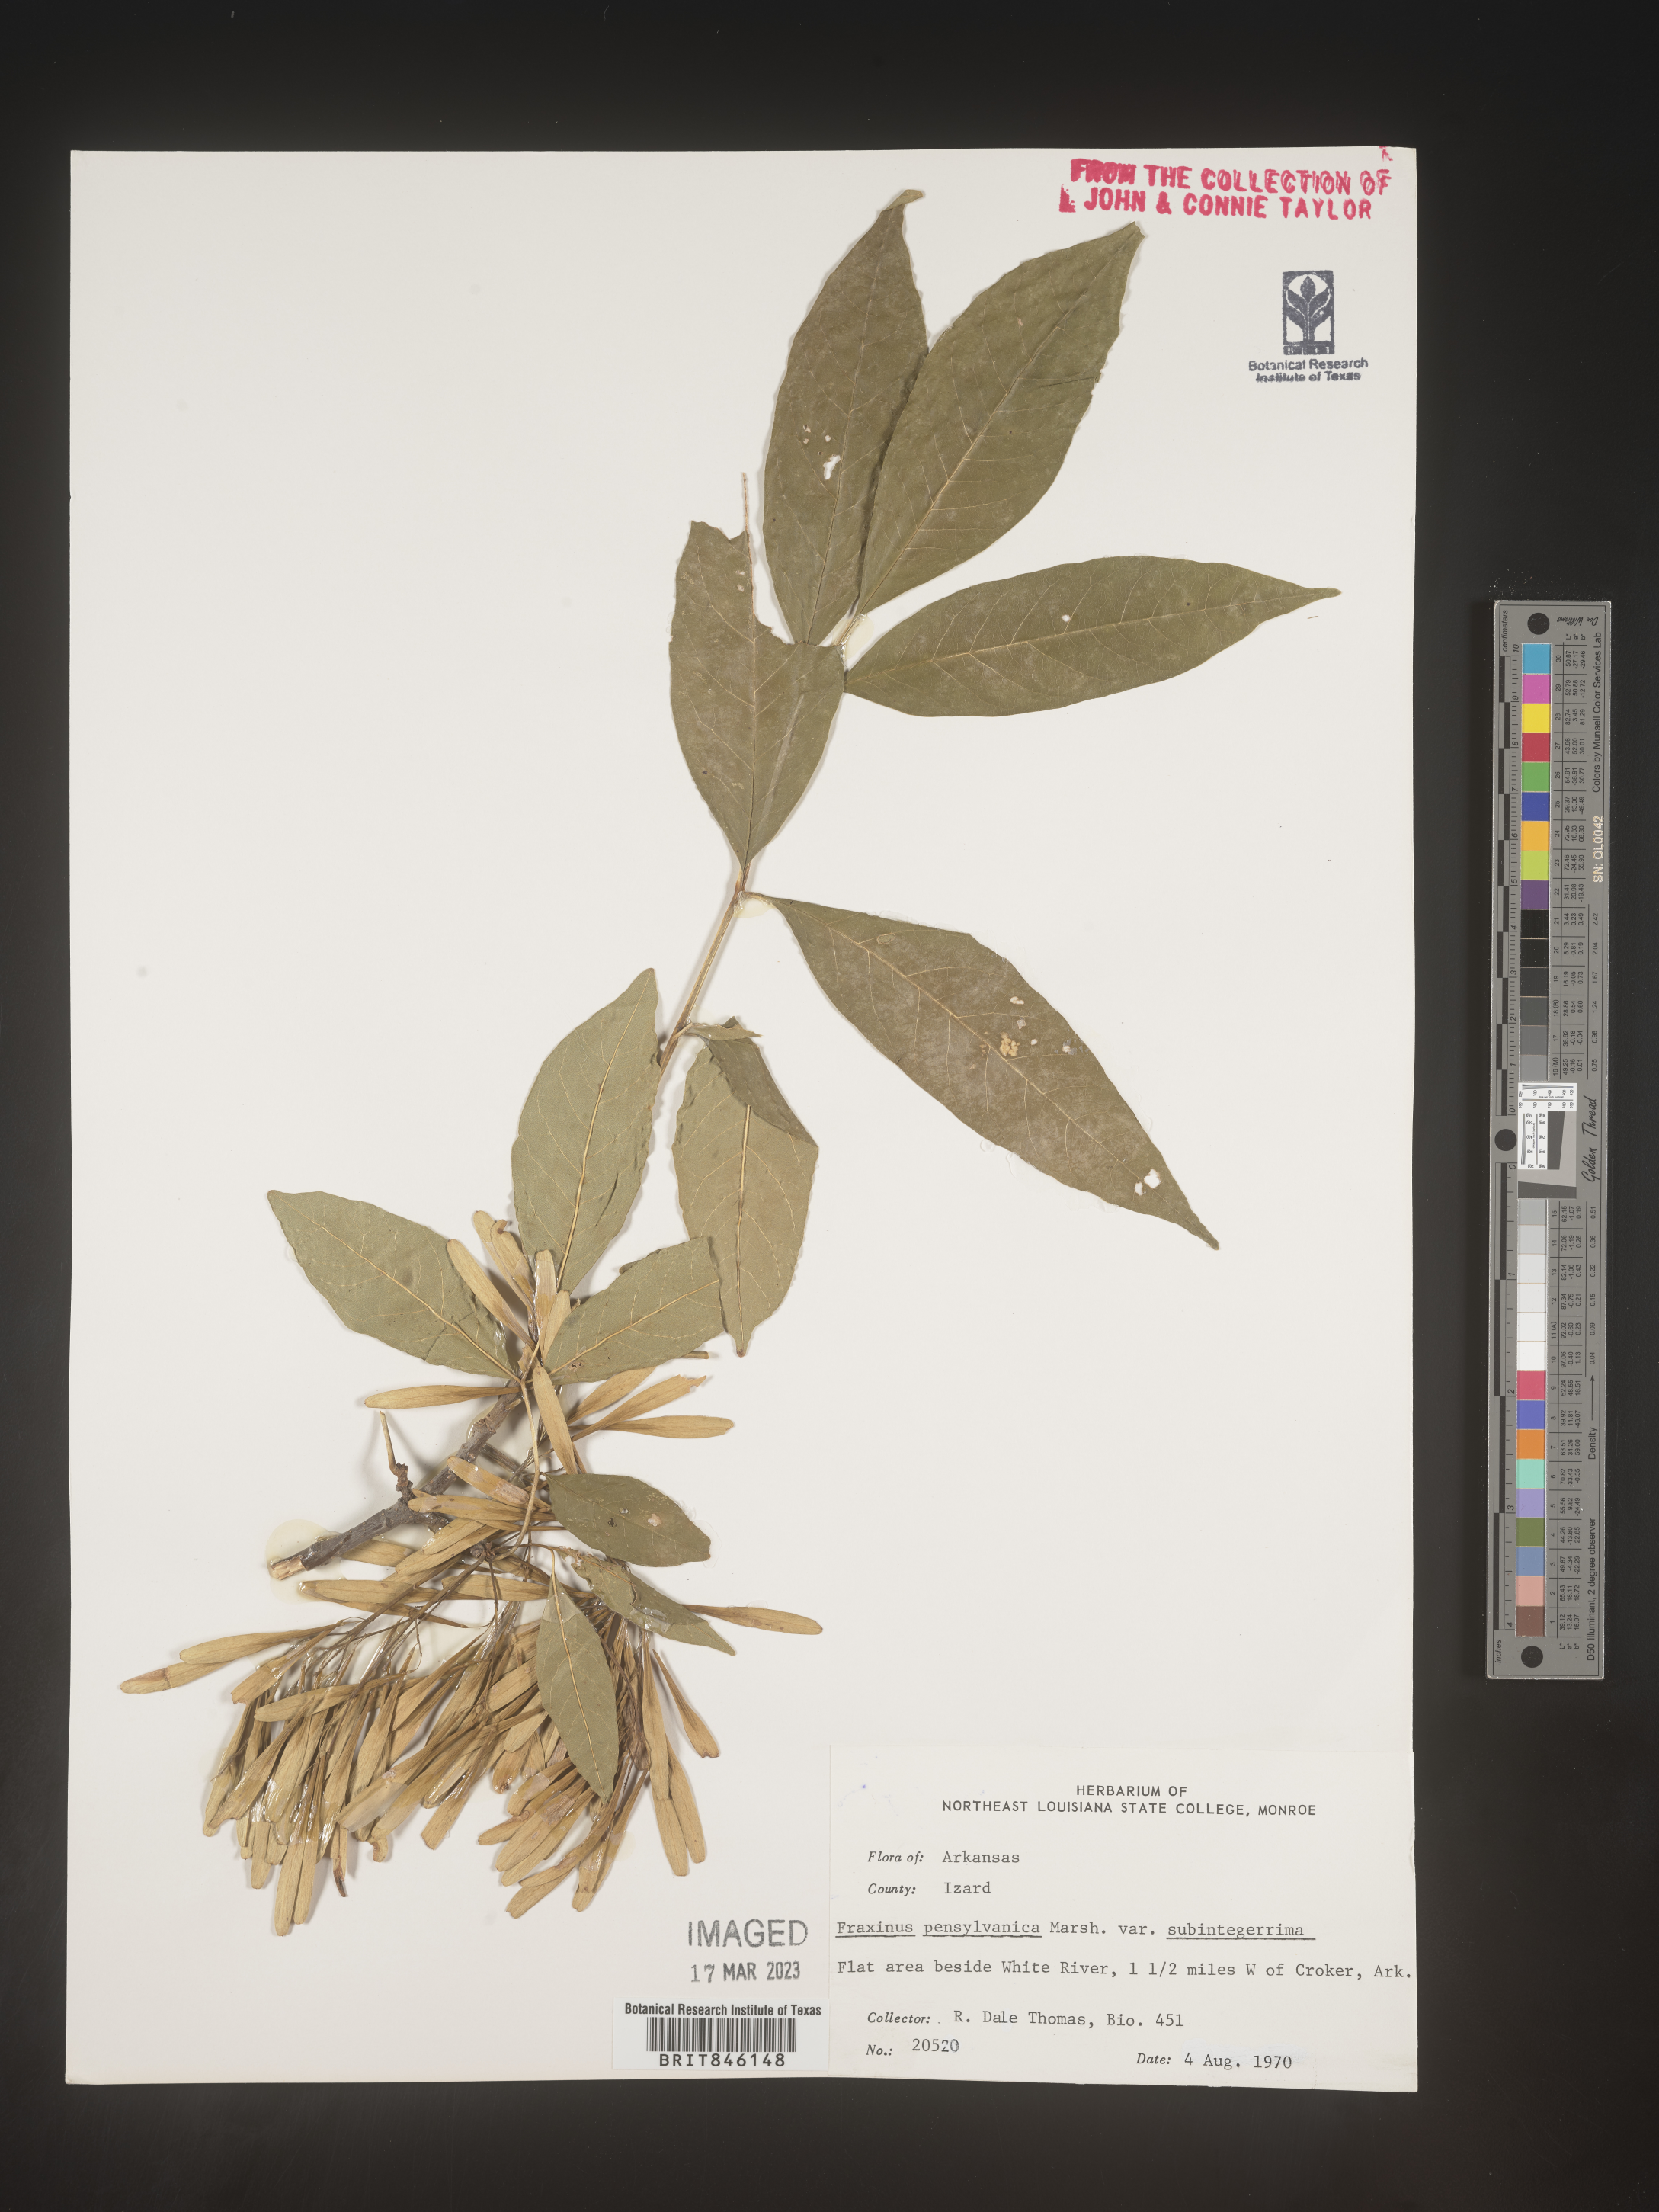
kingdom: Plantae
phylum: Tracheophyta
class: Magnoliopsida
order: Lamiales
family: Oleaceae
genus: Fraxinus
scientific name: Fraxinus pennsylvanica
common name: Green ash
